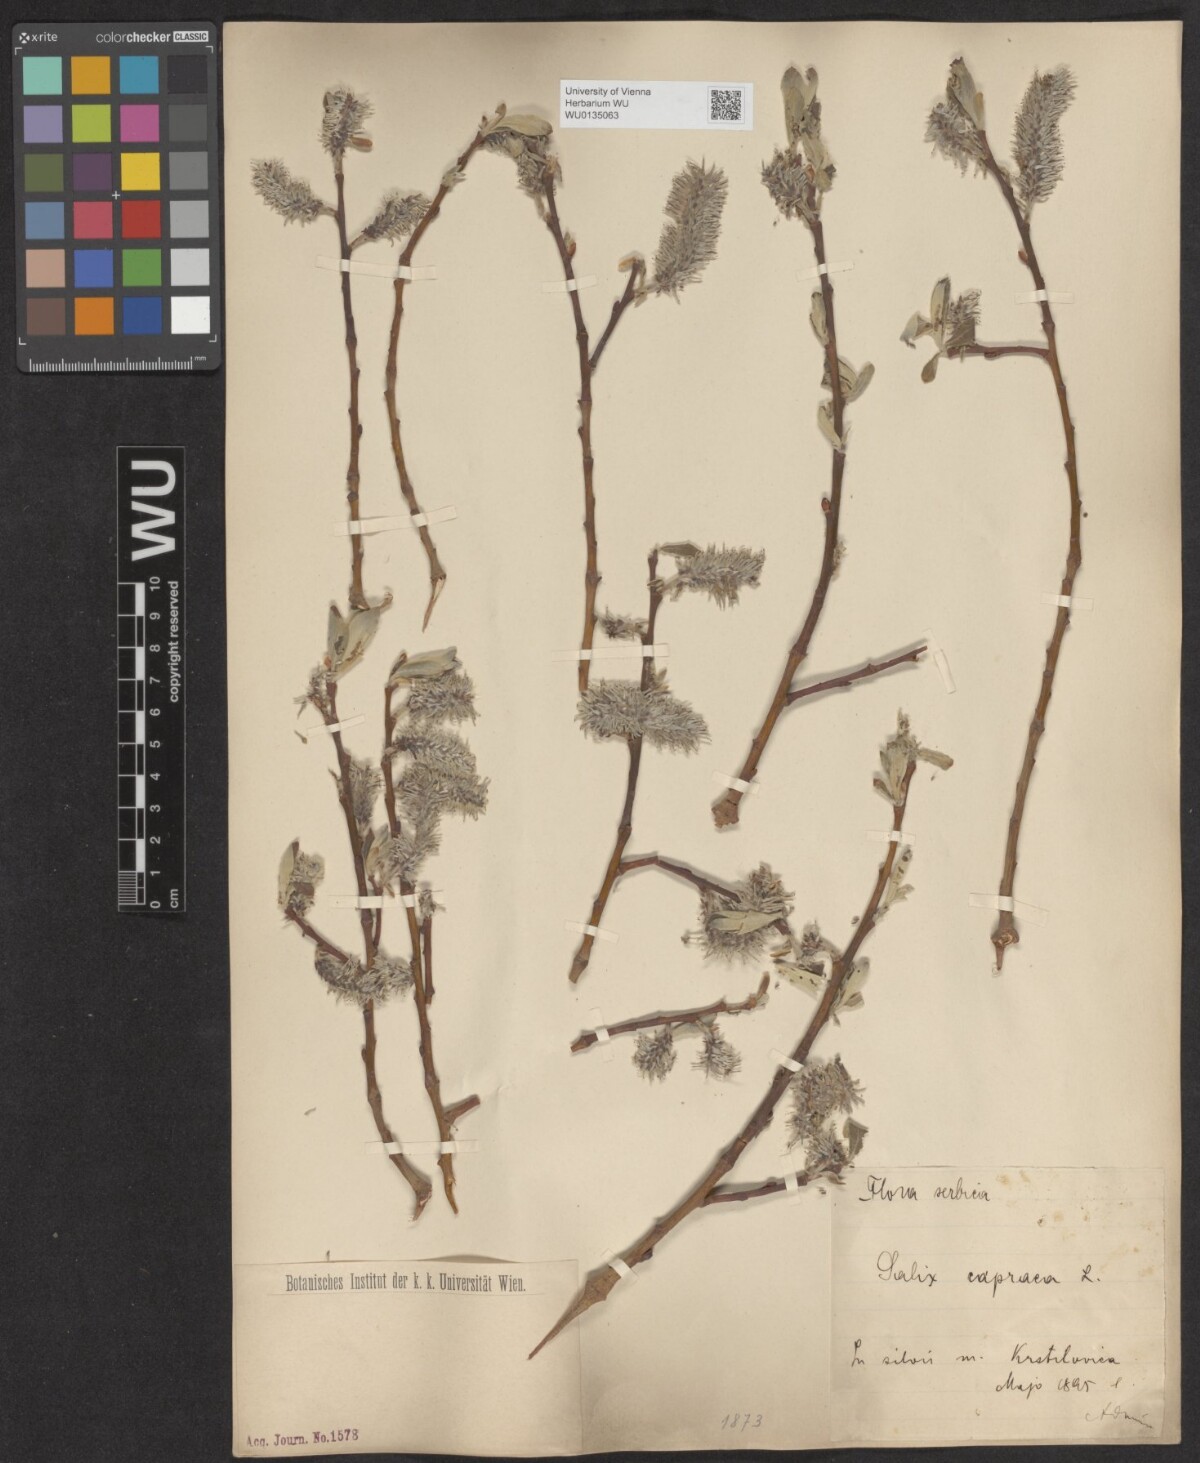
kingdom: Plantae
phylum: Tracheophyta
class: Magnoliopsida
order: Malpighiales
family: Salicaceae
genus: Salix
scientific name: Salix caprea
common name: Goat willow
